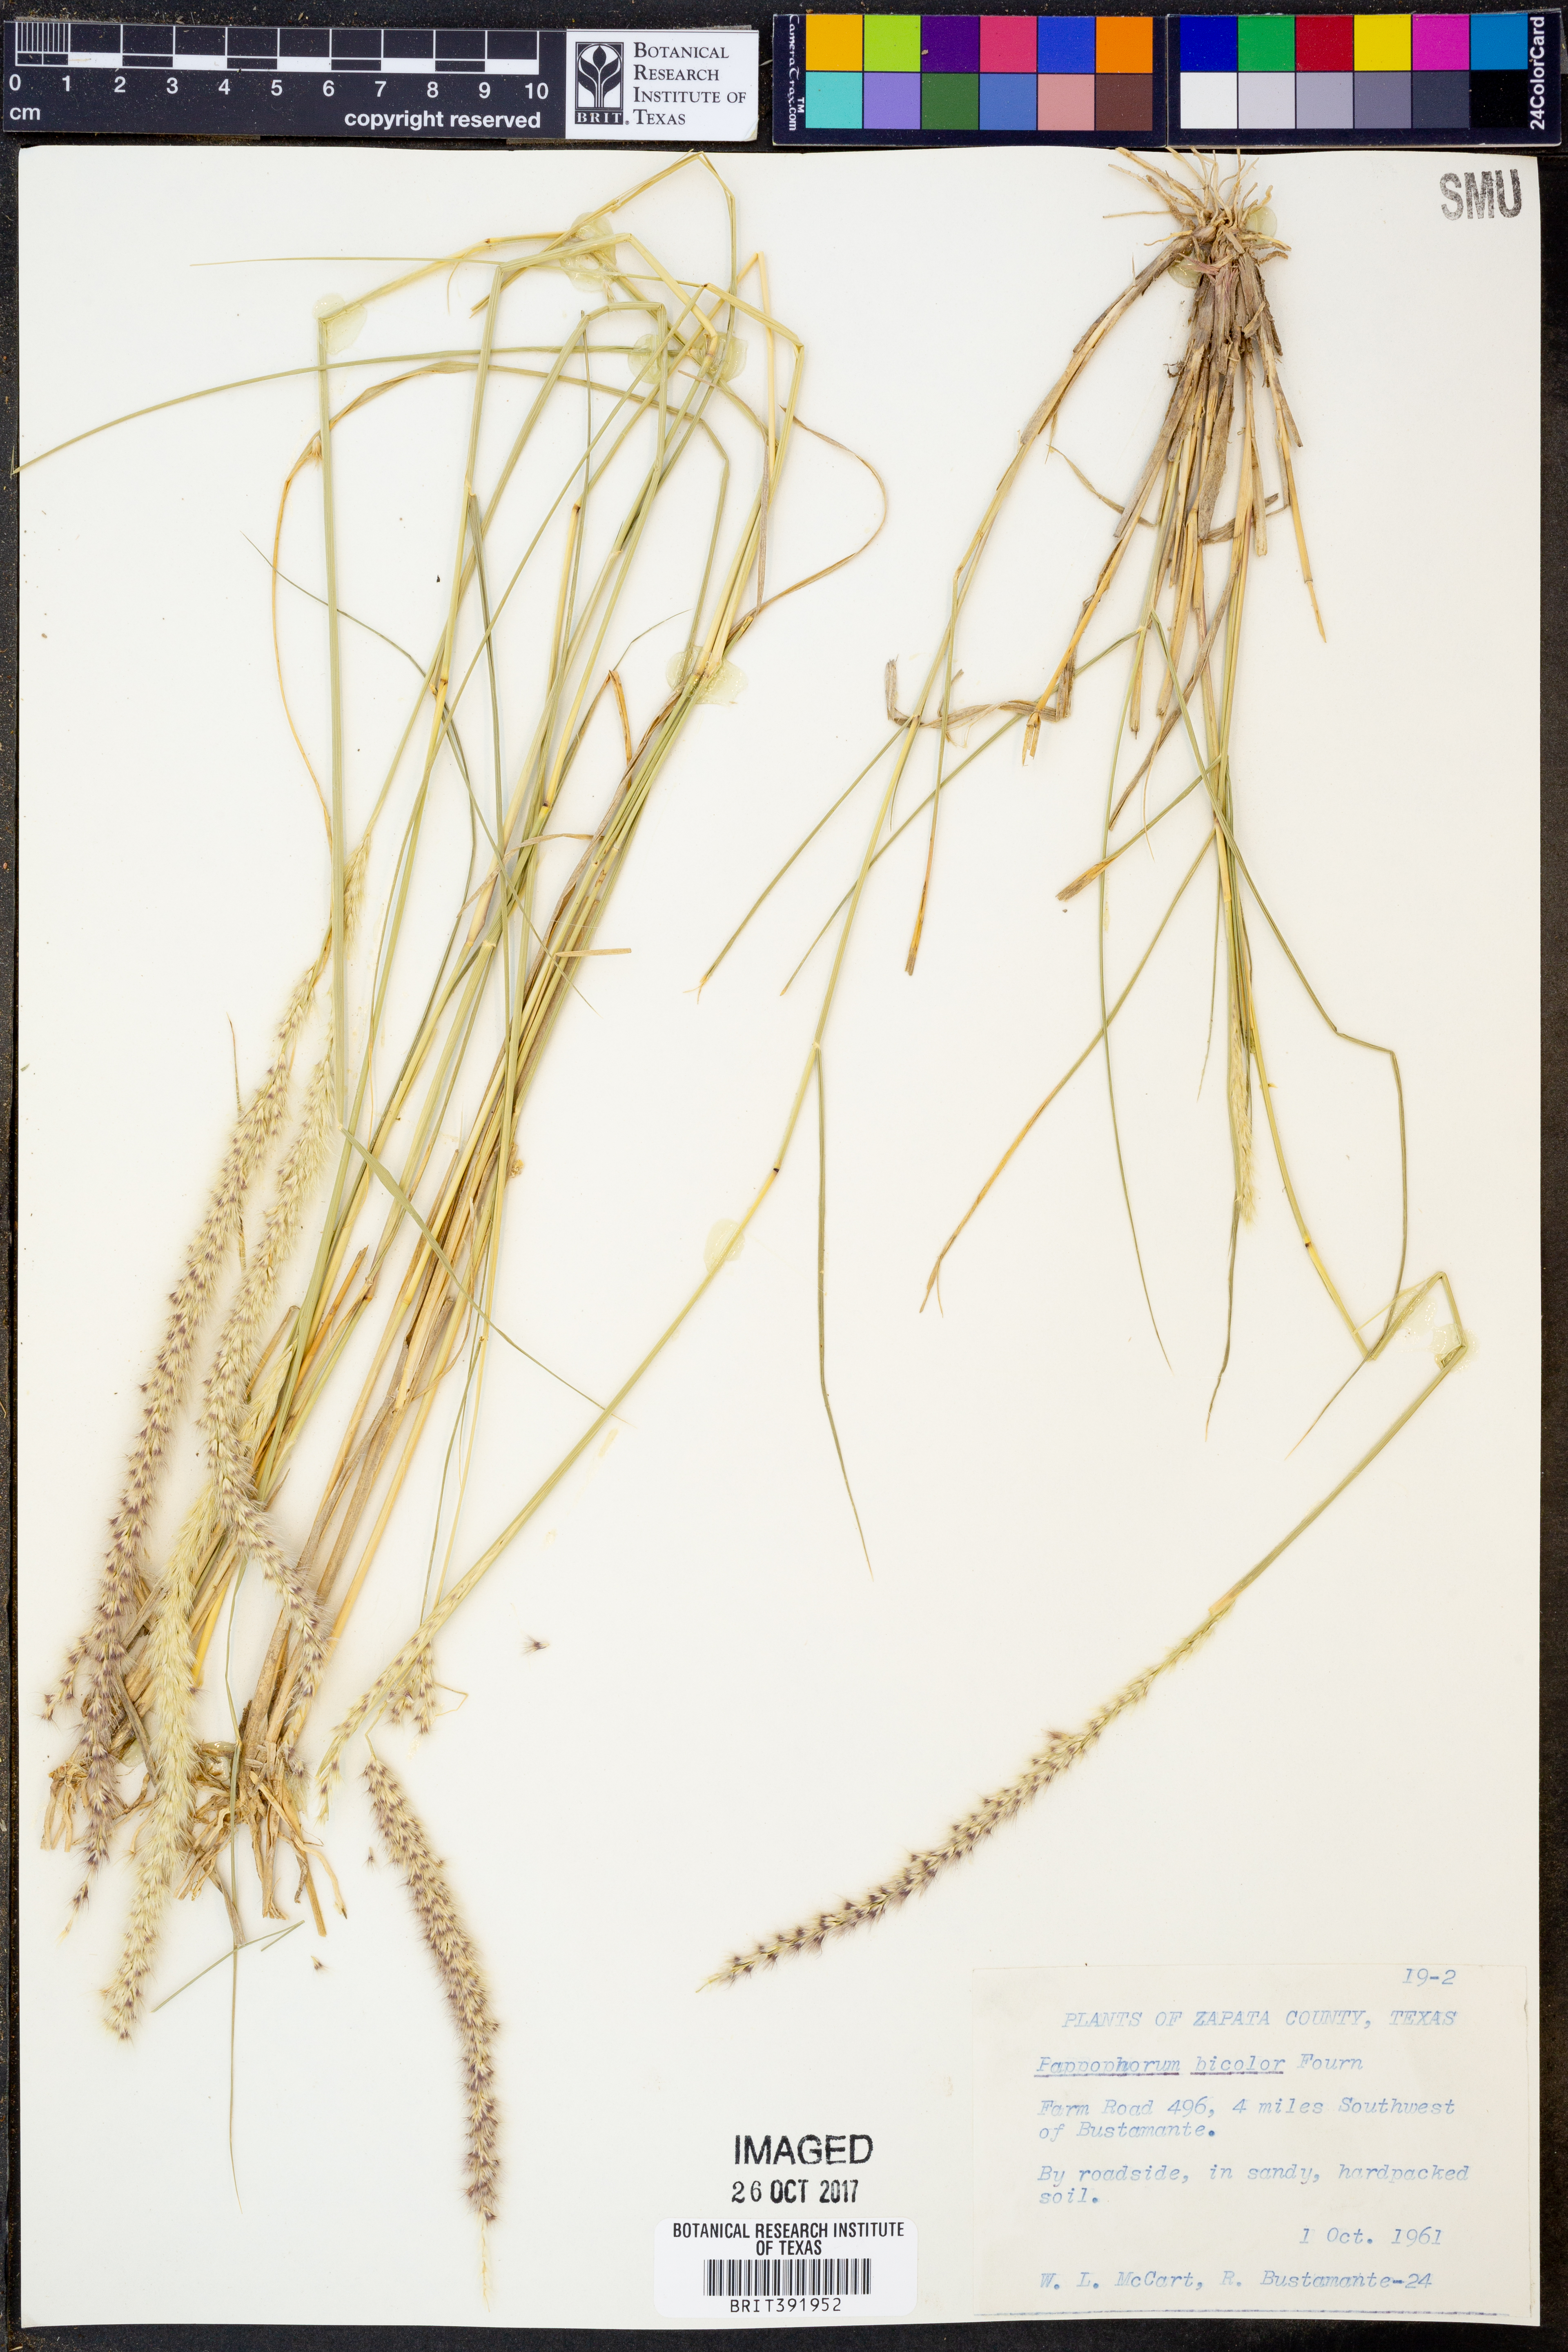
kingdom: Plantae
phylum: Tracheophyta
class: Liliopsida
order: Poales
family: Poaceae
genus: Pappophorum
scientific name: Pappophorum bicolor
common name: Pink pappus grass
